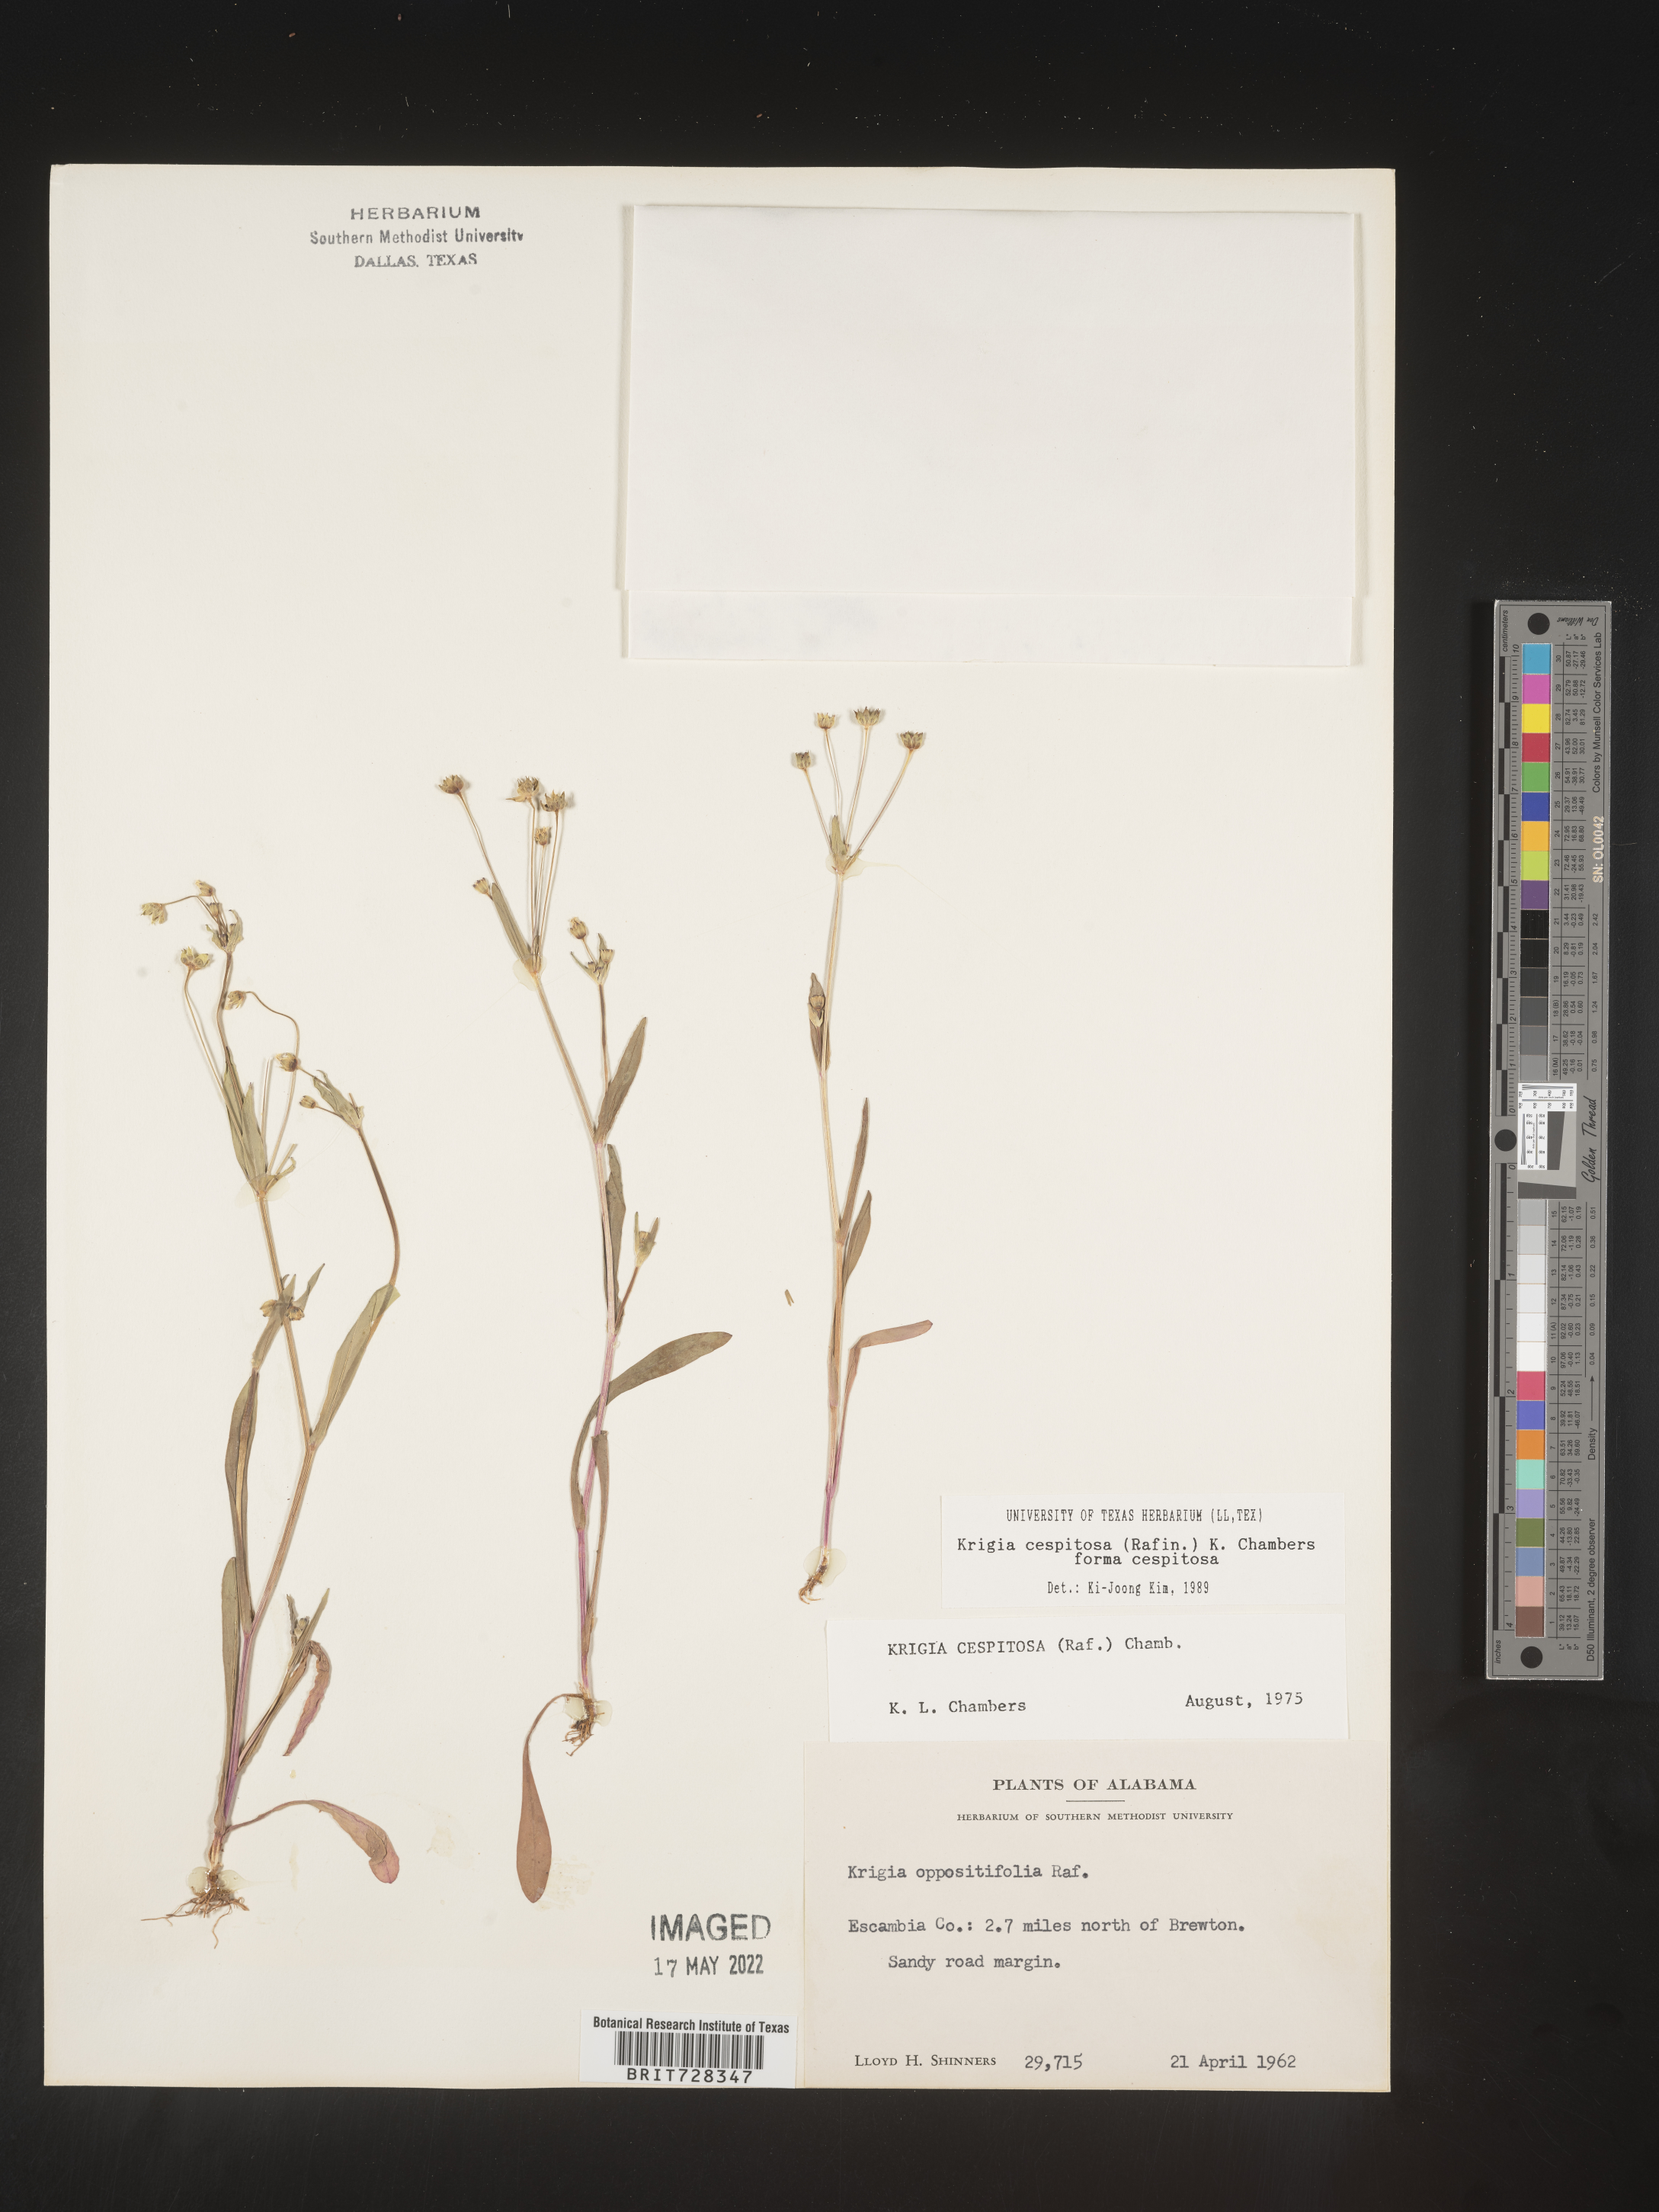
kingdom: Plantae
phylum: Tracheophyta
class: Magnoliopsida
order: Asterales
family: Asteraceae
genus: Krigia
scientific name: Krigia caespitosa
